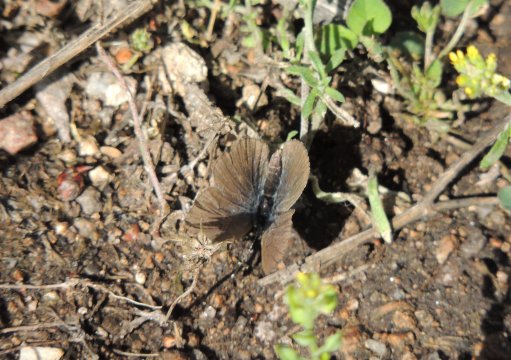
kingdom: Animalia
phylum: Arthropoda
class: Insecta
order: Lepidoptera
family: Lycaenidae
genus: Icaricia
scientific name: Icaricia icarioides
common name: Boisduval's Blue
